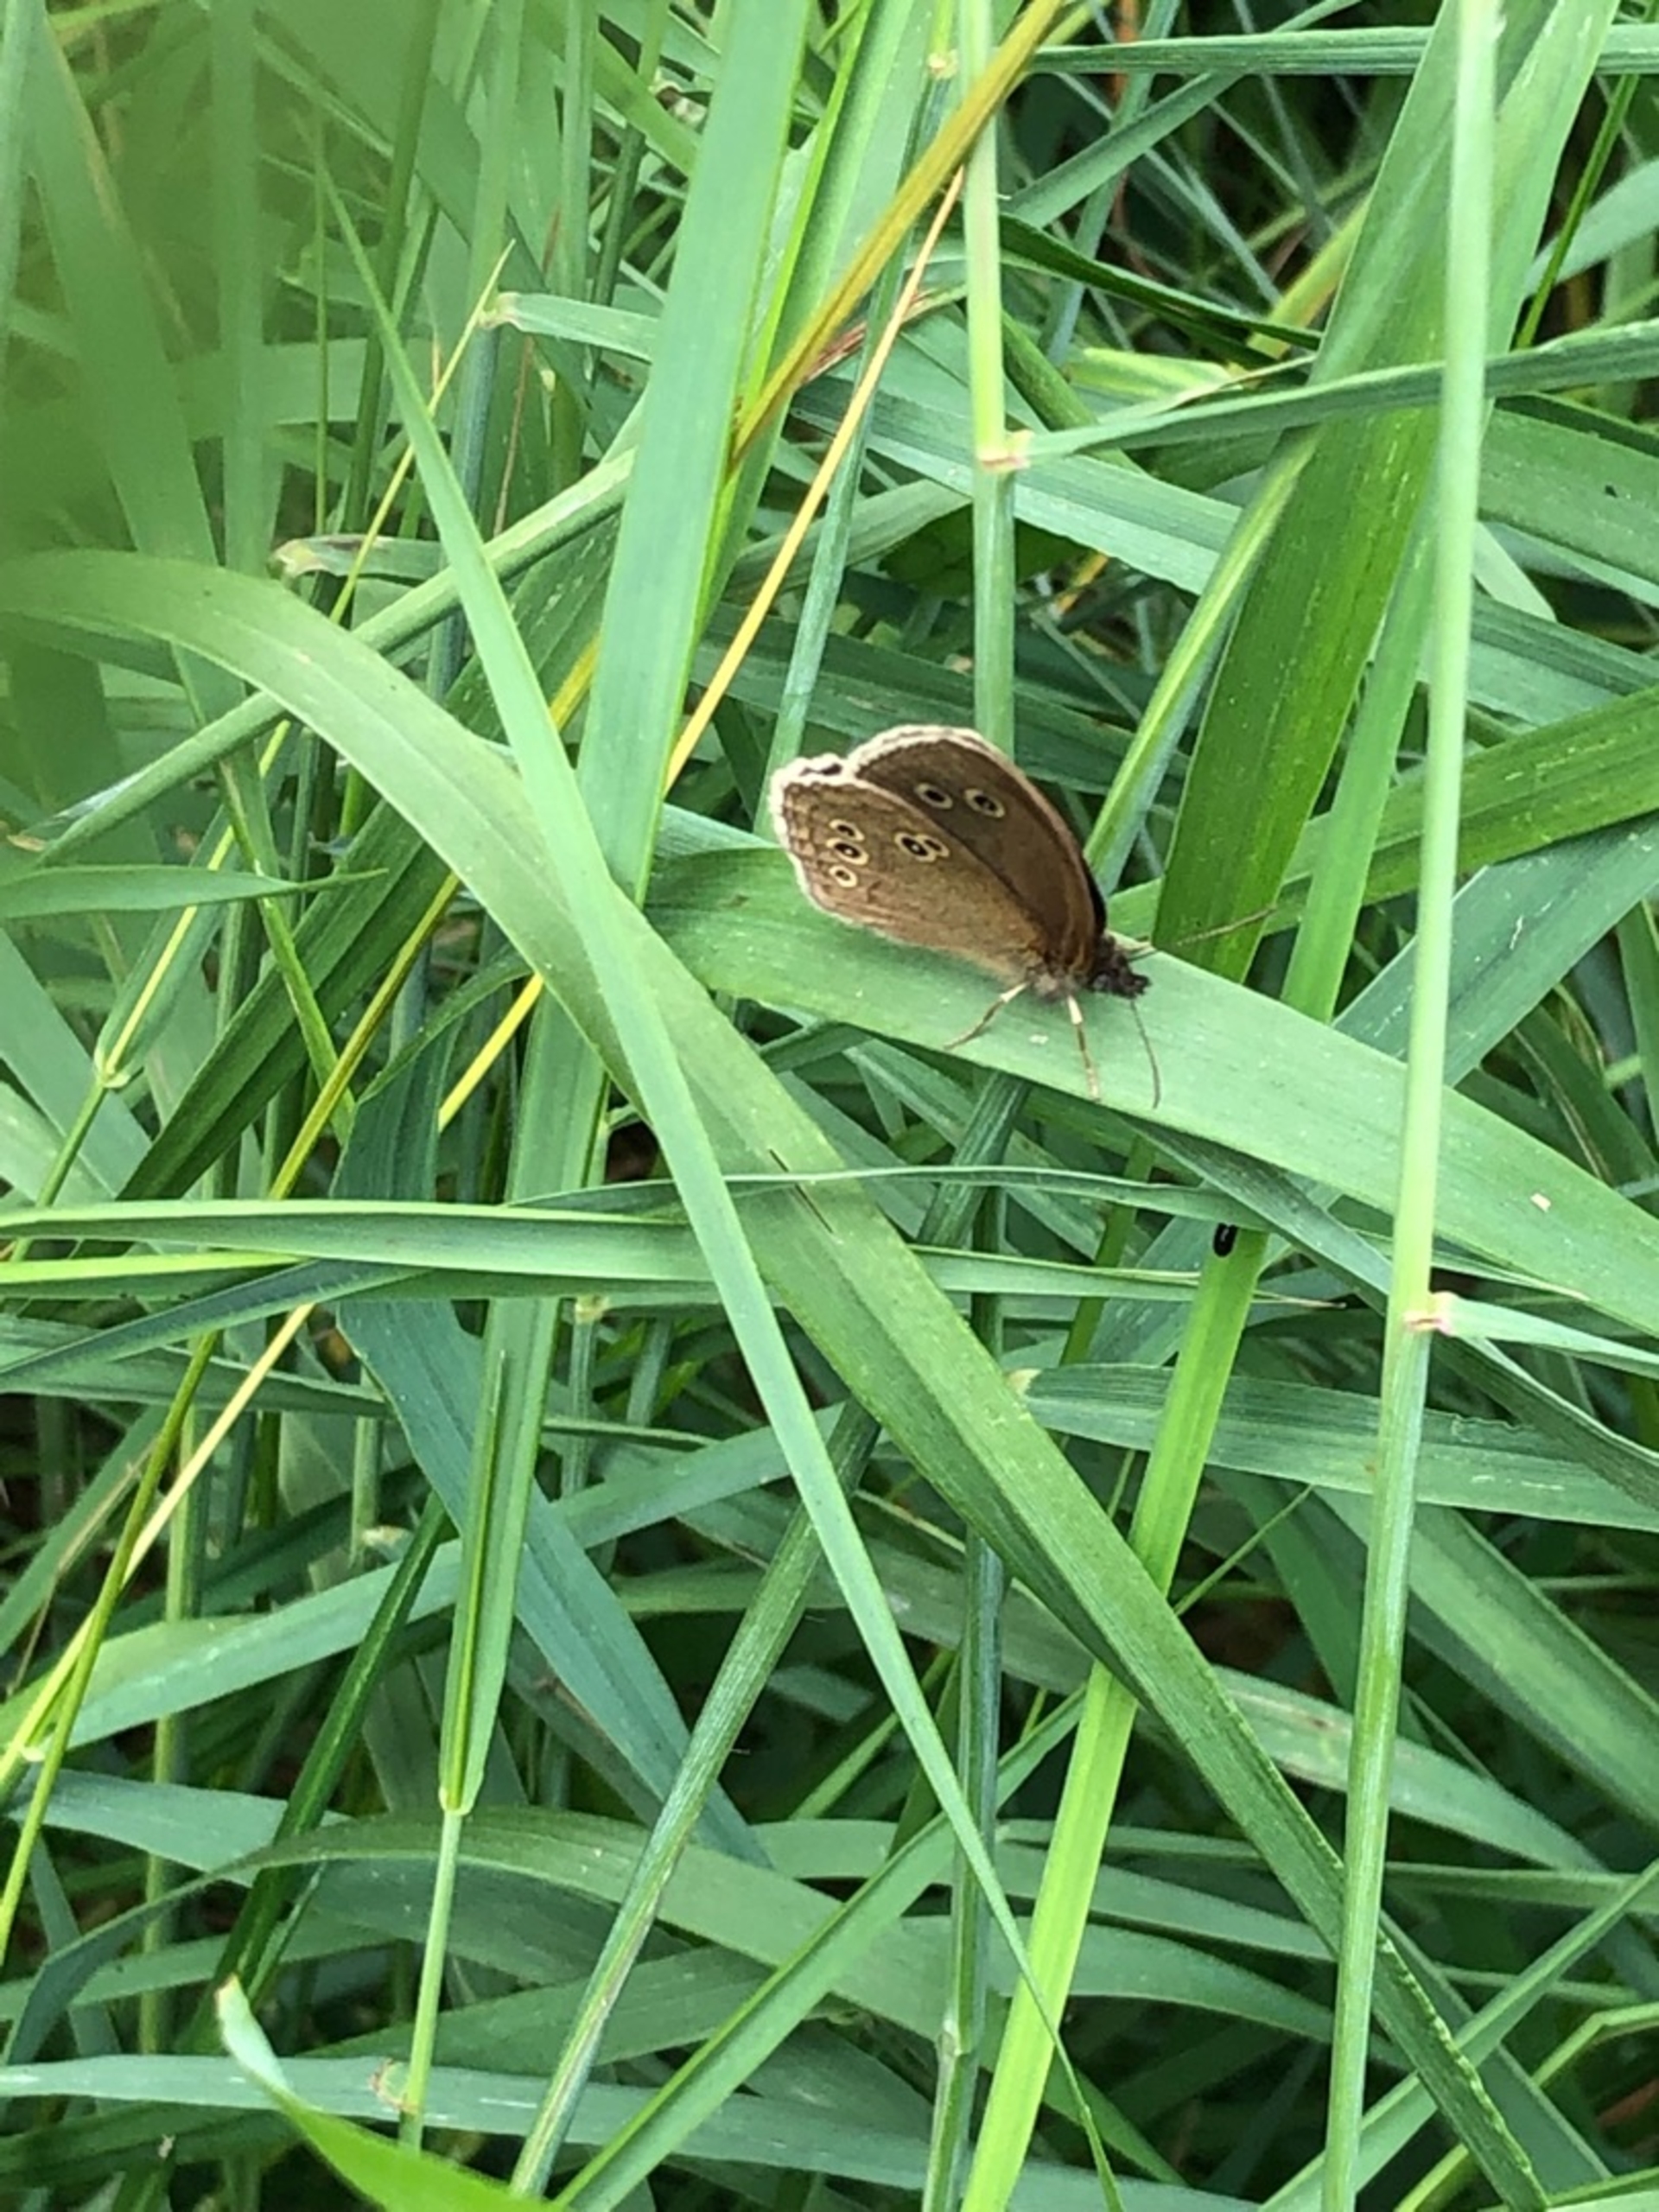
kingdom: Animalia
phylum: Arthropoda
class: Insecta
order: Lepidoptera
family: Nymphalidae
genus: Aphantopus
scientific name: Aphantopus hyperantus
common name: Engrandøje
